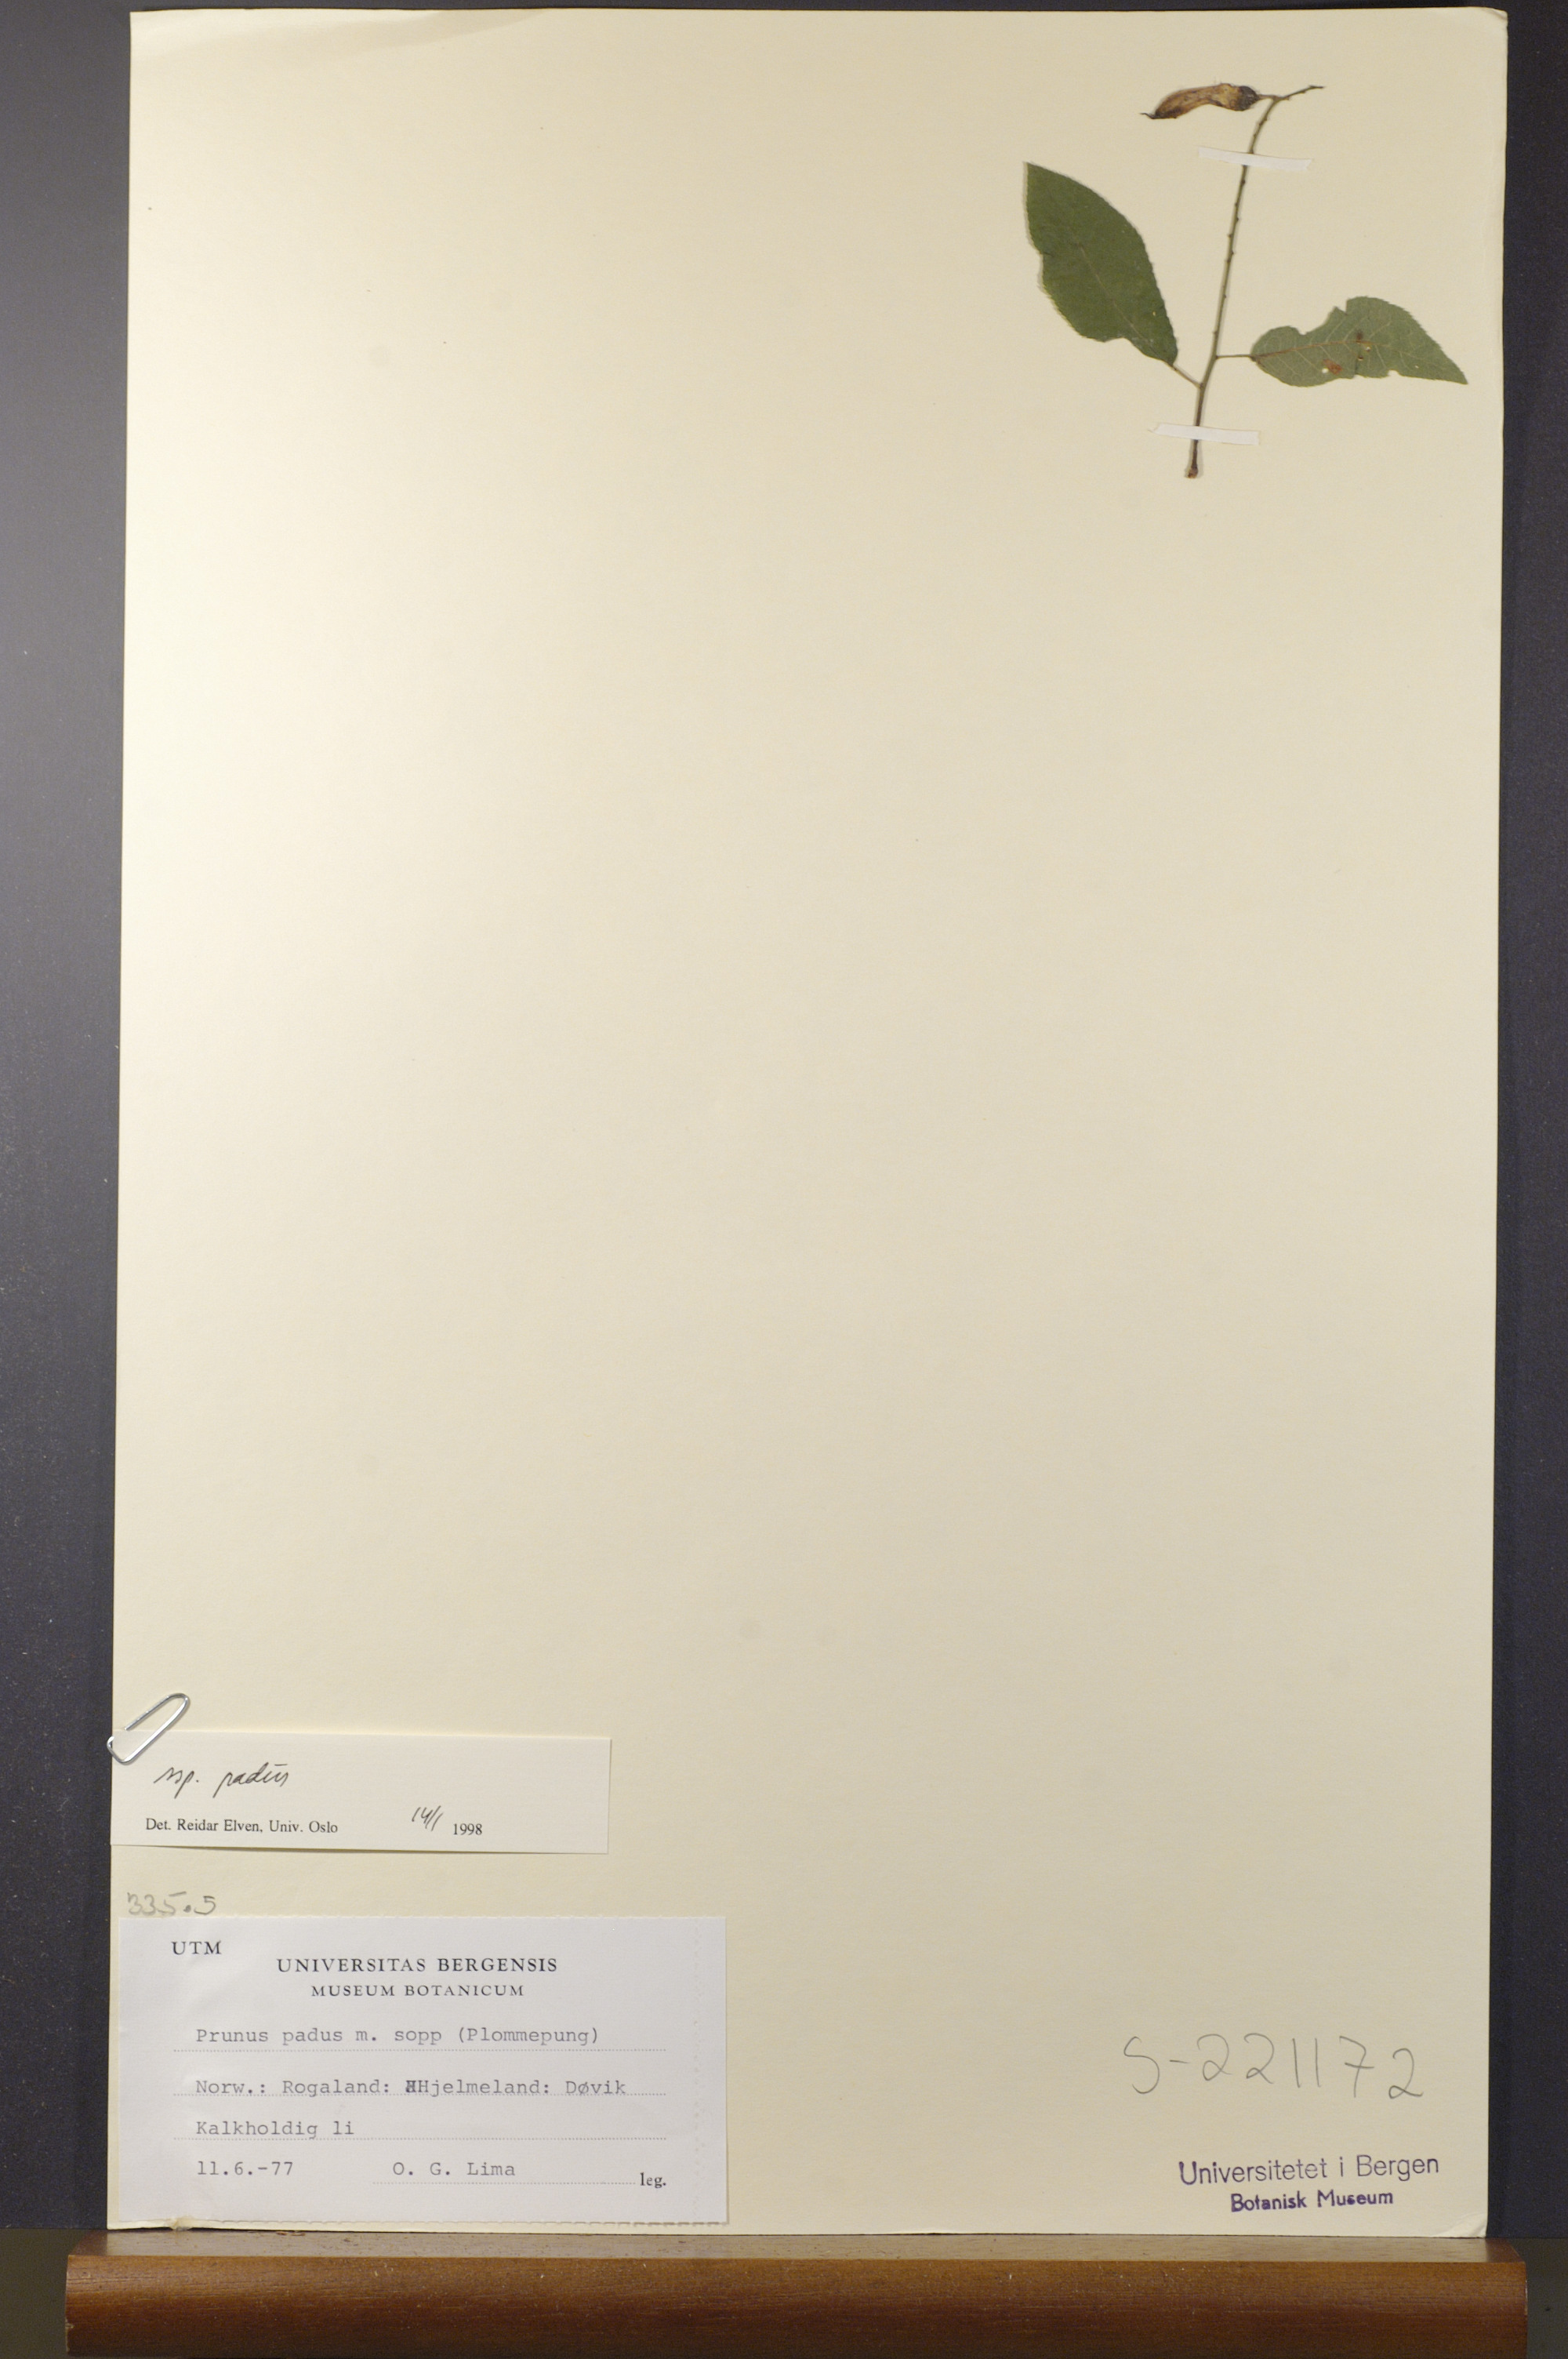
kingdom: Plantae
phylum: Tracheophyta
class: Magnoliopsida
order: Rosales
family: Rosaceae
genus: Prunus
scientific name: Prunus padus
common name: Bird cherry
